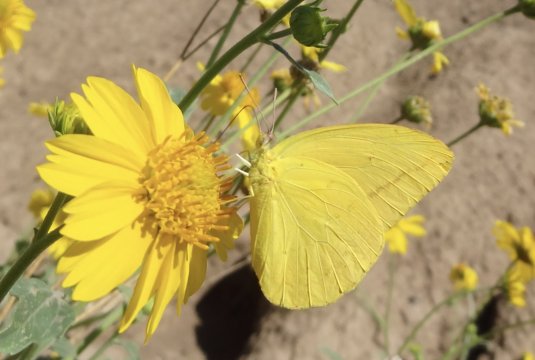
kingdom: Animalia
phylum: Arthropoda
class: Insecta
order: Lepidoptera
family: Pieridae
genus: Phoebis
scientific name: Phoebis agarithe
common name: Large Orange Sulphur
